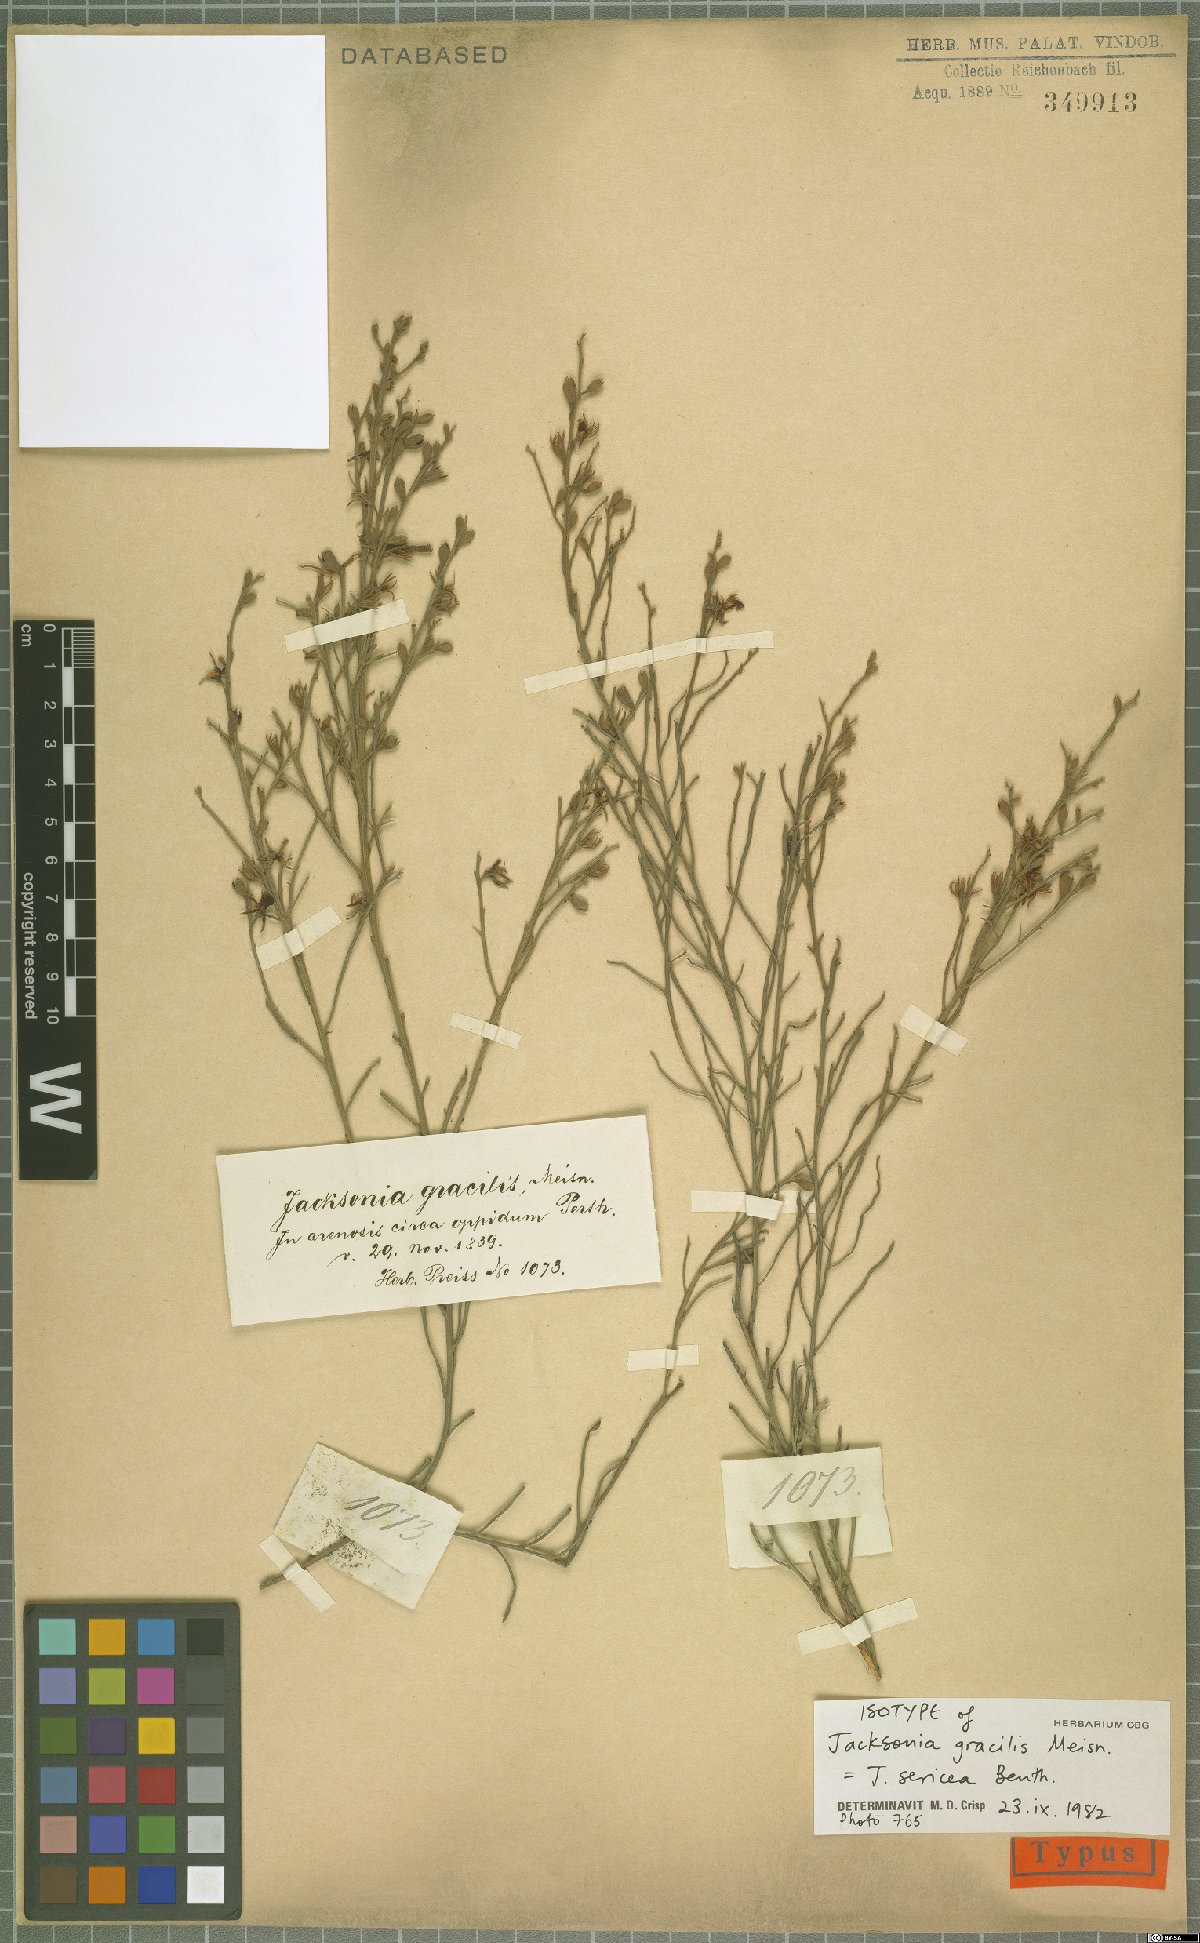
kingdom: Plantae
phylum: Tracheophyta
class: Magnoliopsida
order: Fabales
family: Fabaceae
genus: Jacksonia
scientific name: Jacksonia sericea
